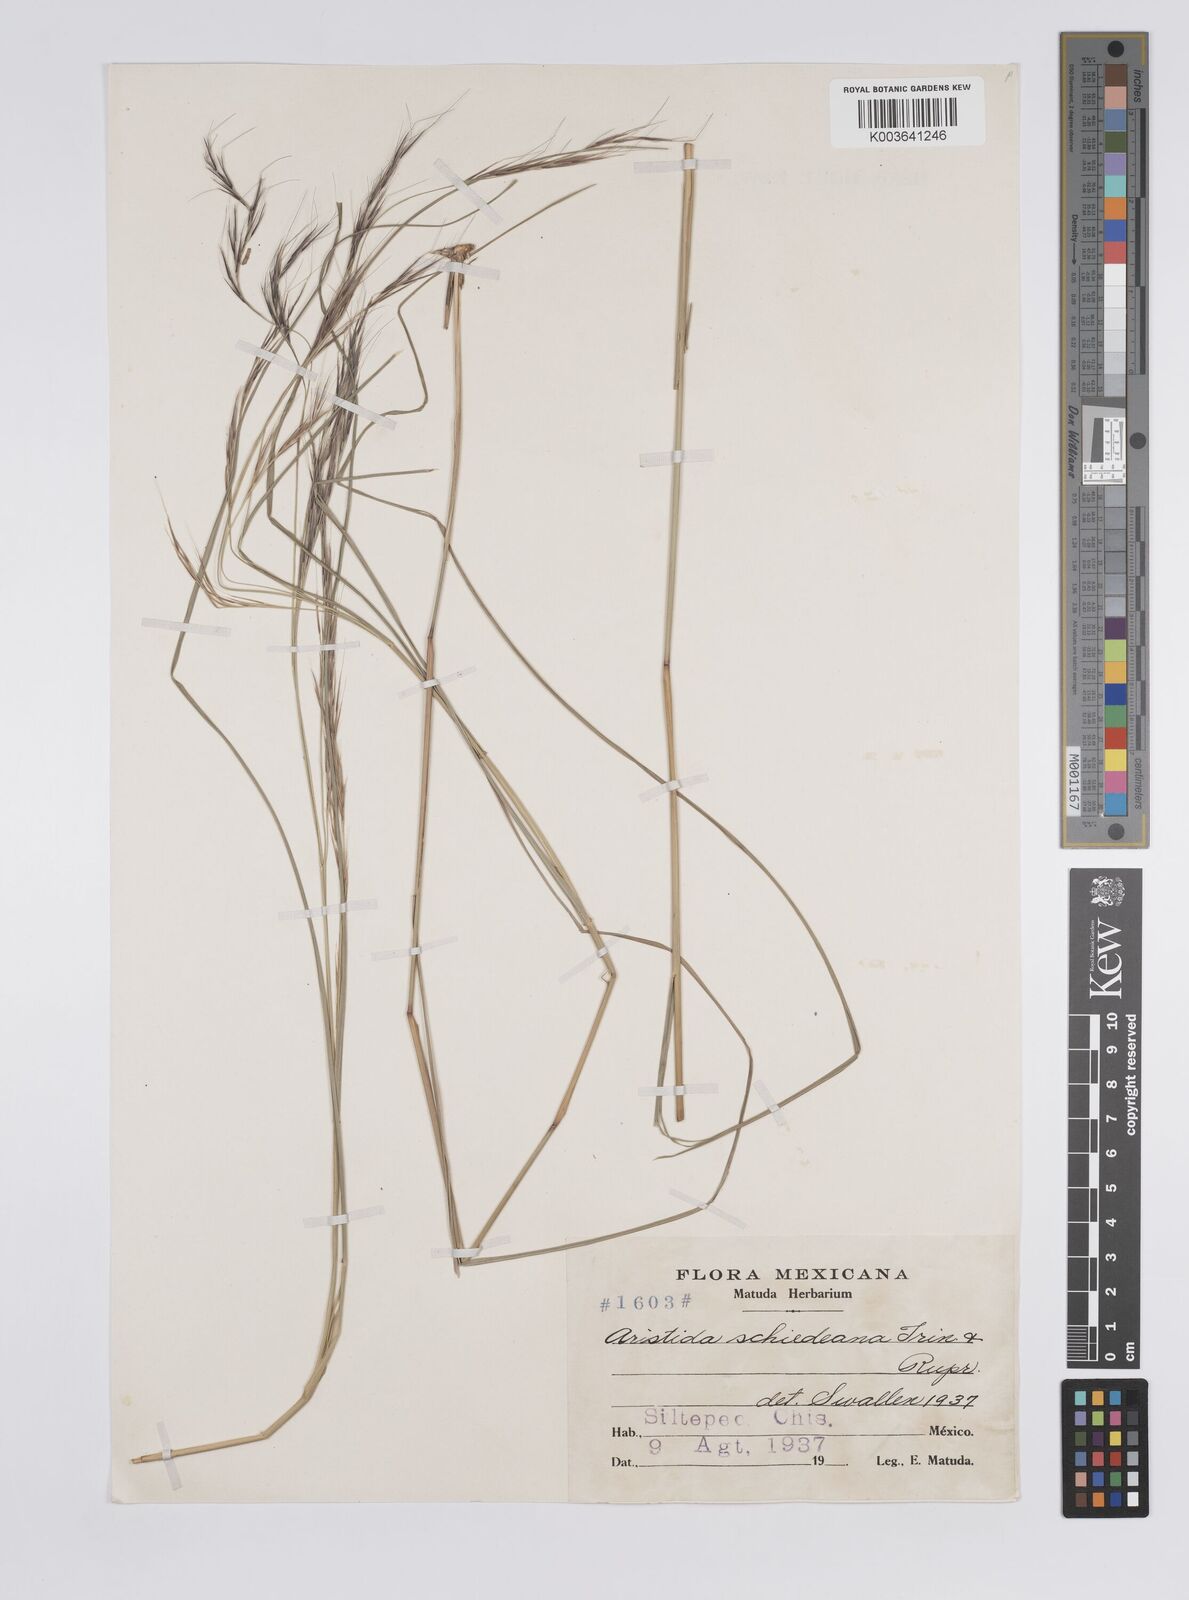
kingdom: Plantae
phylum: Tracheophyta
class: Liliopsida
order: Poales
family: Poaceae
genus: Aristida
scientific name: Aristida schiedeana
